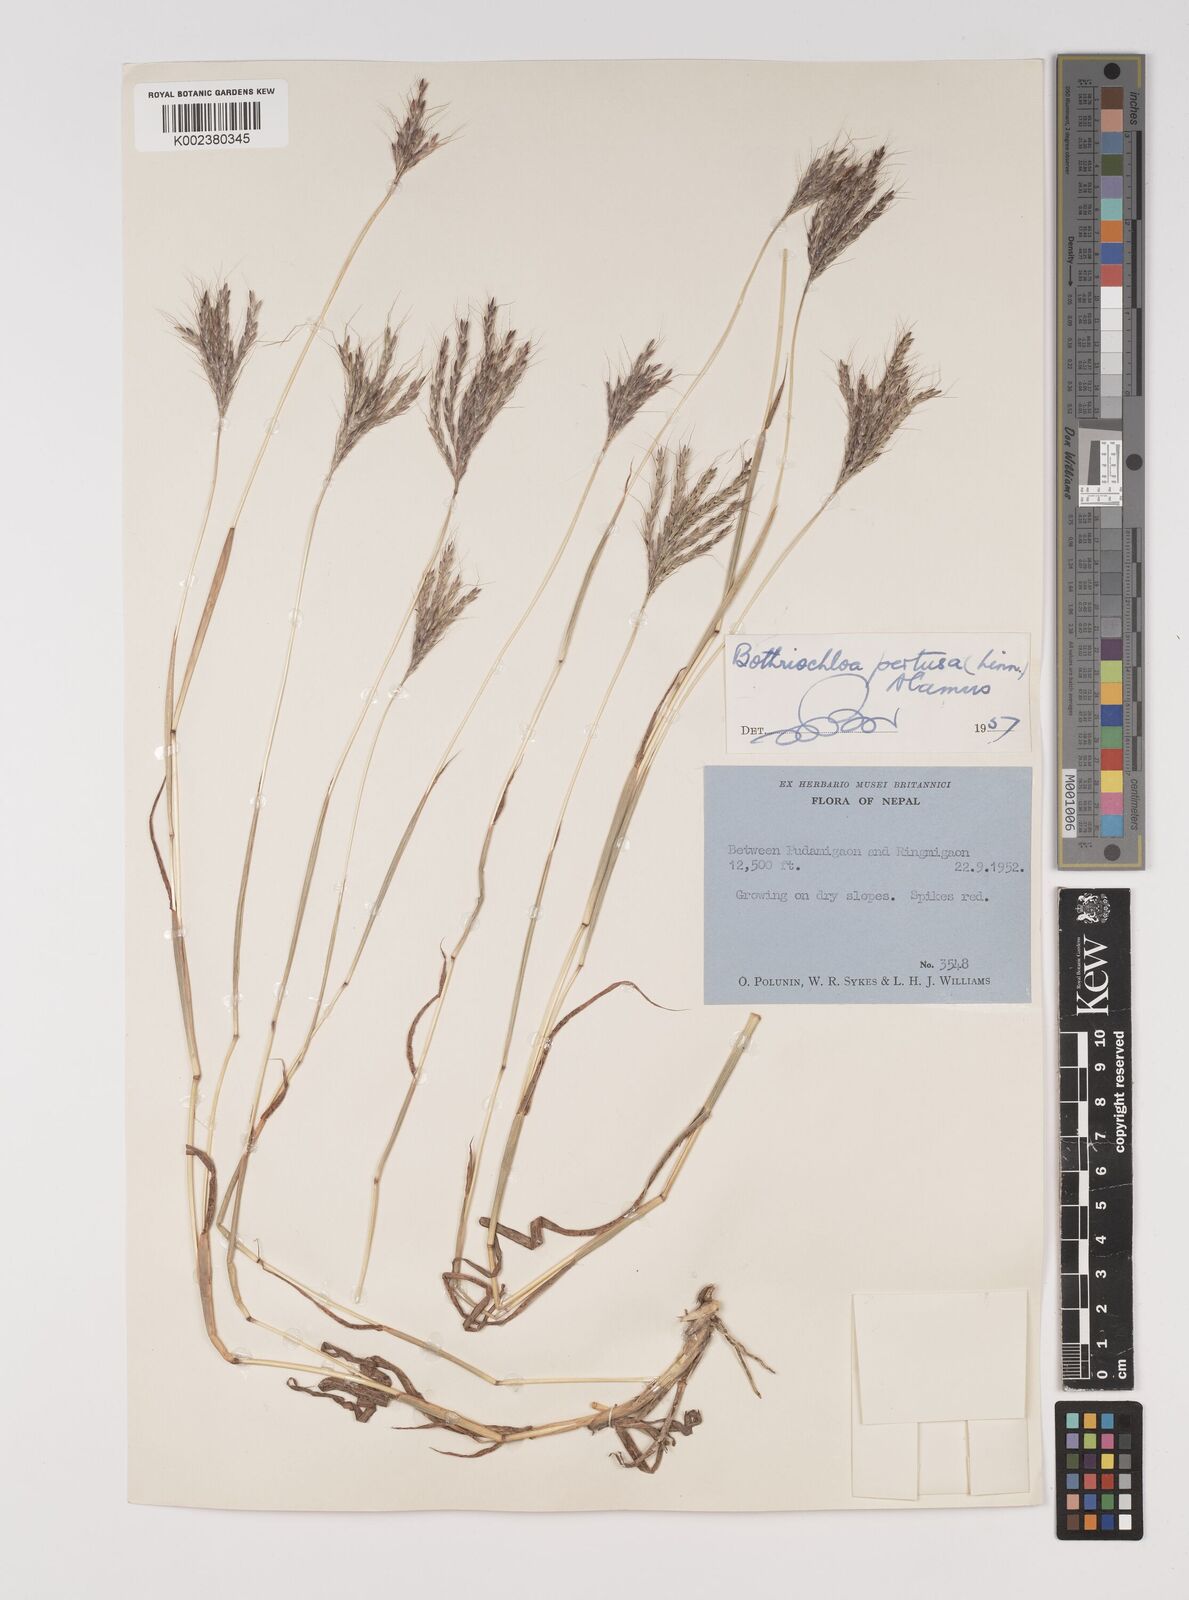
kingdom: Plantae
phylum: Tracheophyta
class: Liliopsida
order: Poales
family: Poaceae
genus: Bothriochloa
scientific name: Bothriochloa pertusa
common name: Pitted beardgrass
